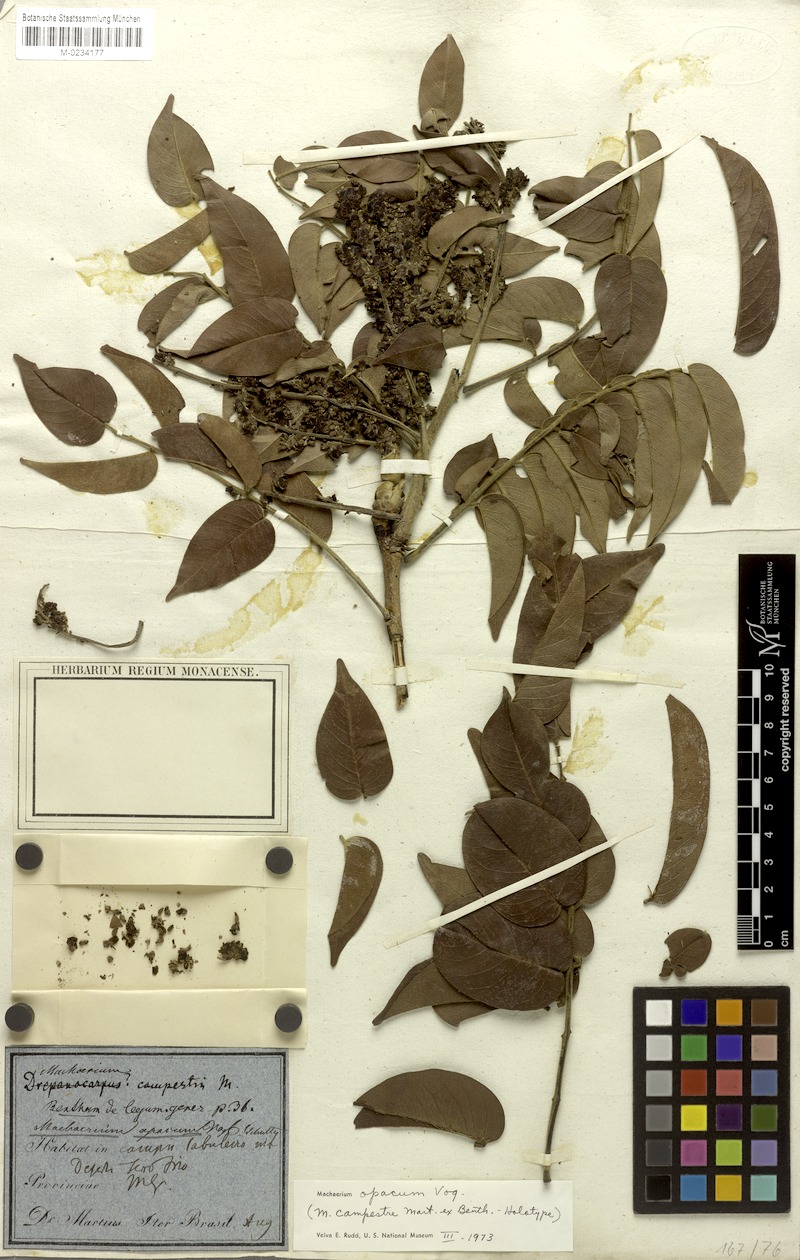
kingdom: Plantae
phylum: Tracheophyta
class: Magnoliopsida
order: Fabales
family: Fabaceae
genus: Machaerium
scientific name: Machaerium opacum
